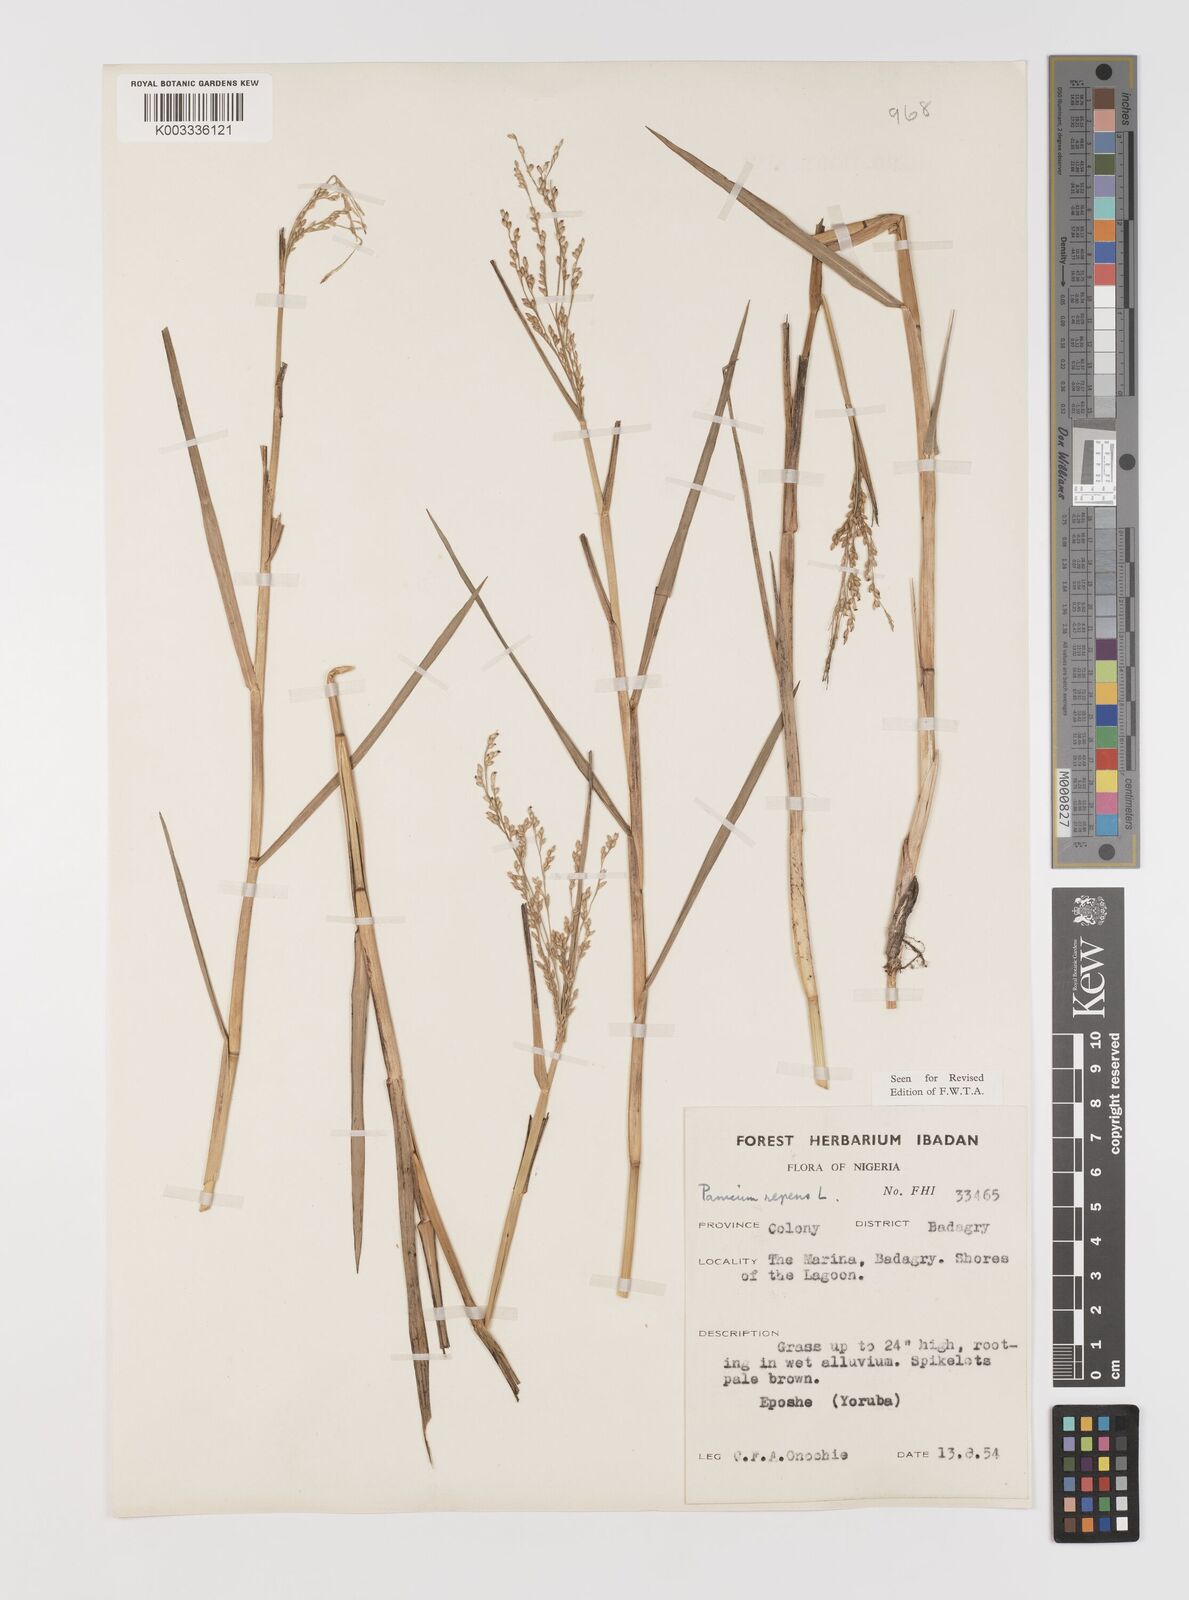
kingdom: Plantae
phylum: Tracheophyta
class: Liliopsida
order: Poales
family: Poaceae
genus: Panicum
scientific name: Panicum repens
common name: Torpedo grass
